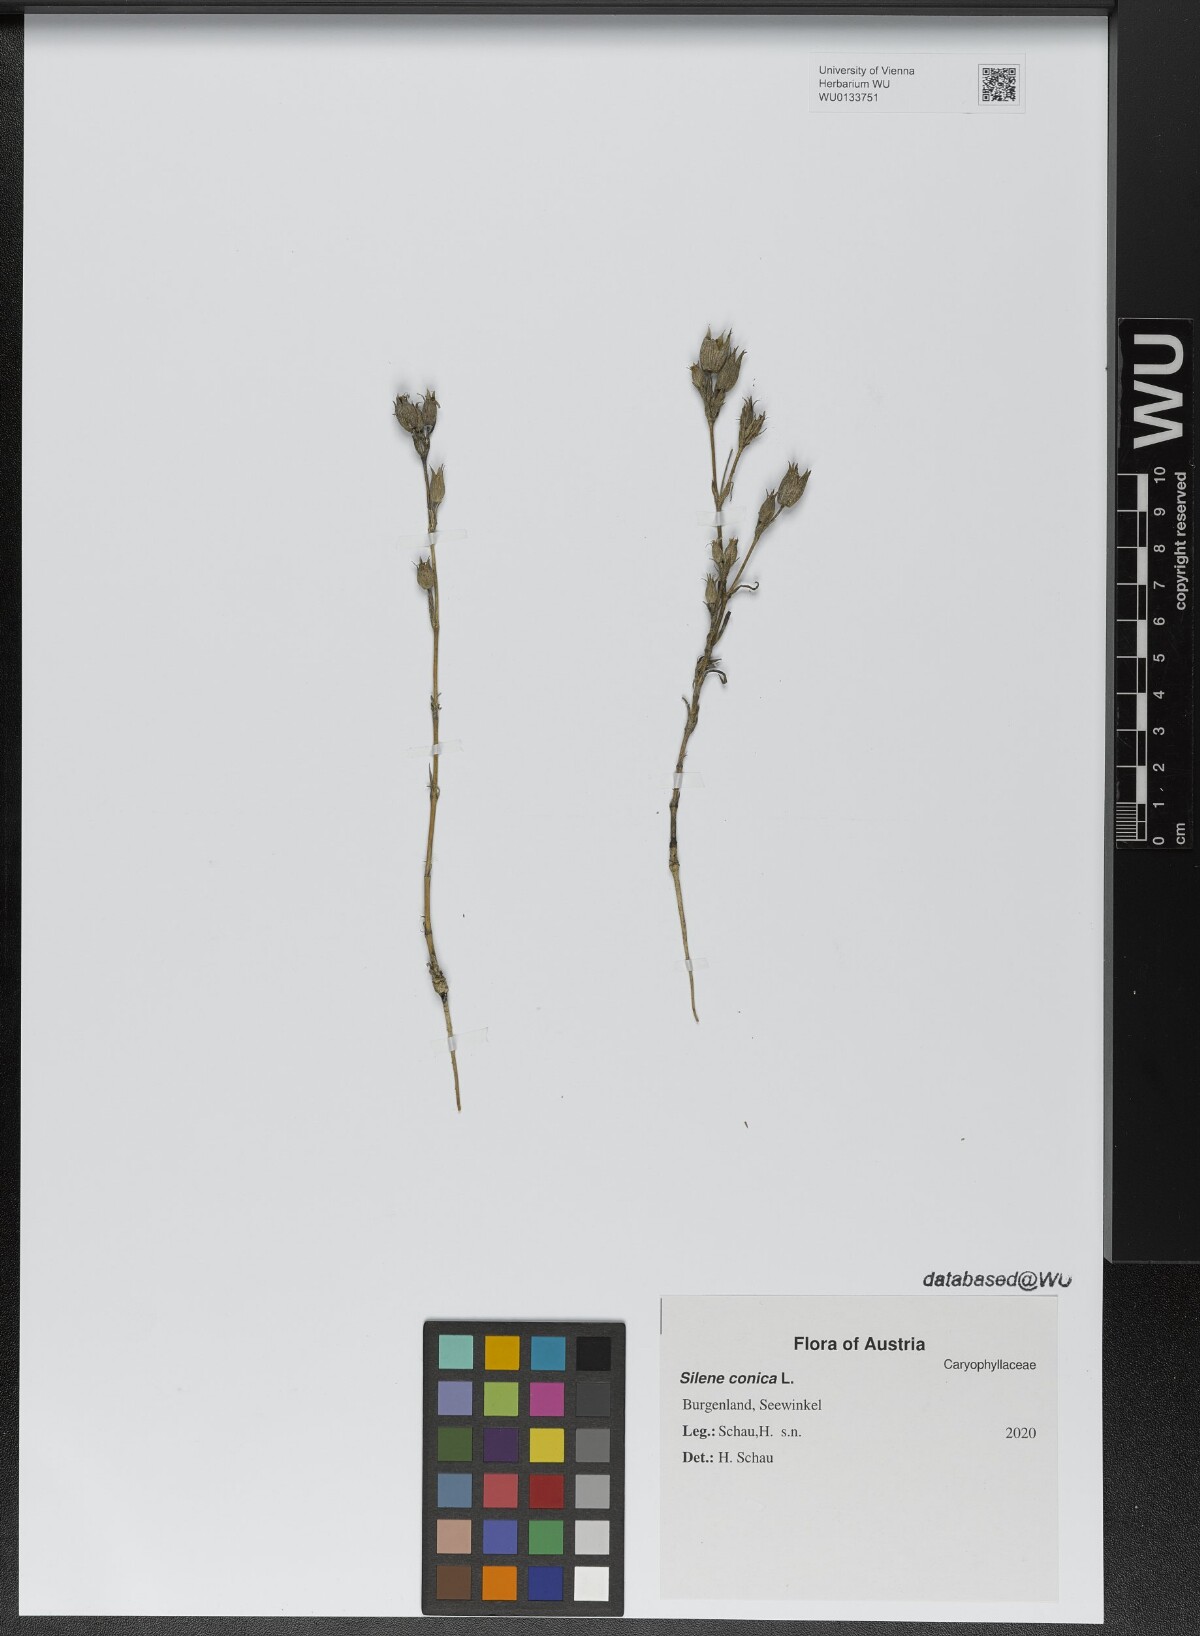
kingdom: Plantae
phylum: Tracheophyta
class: Magnoliopsida
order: Caryophyllales
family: Caryophyllaceae
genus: Silene
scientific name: Silene conica
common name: Sand catchfly
